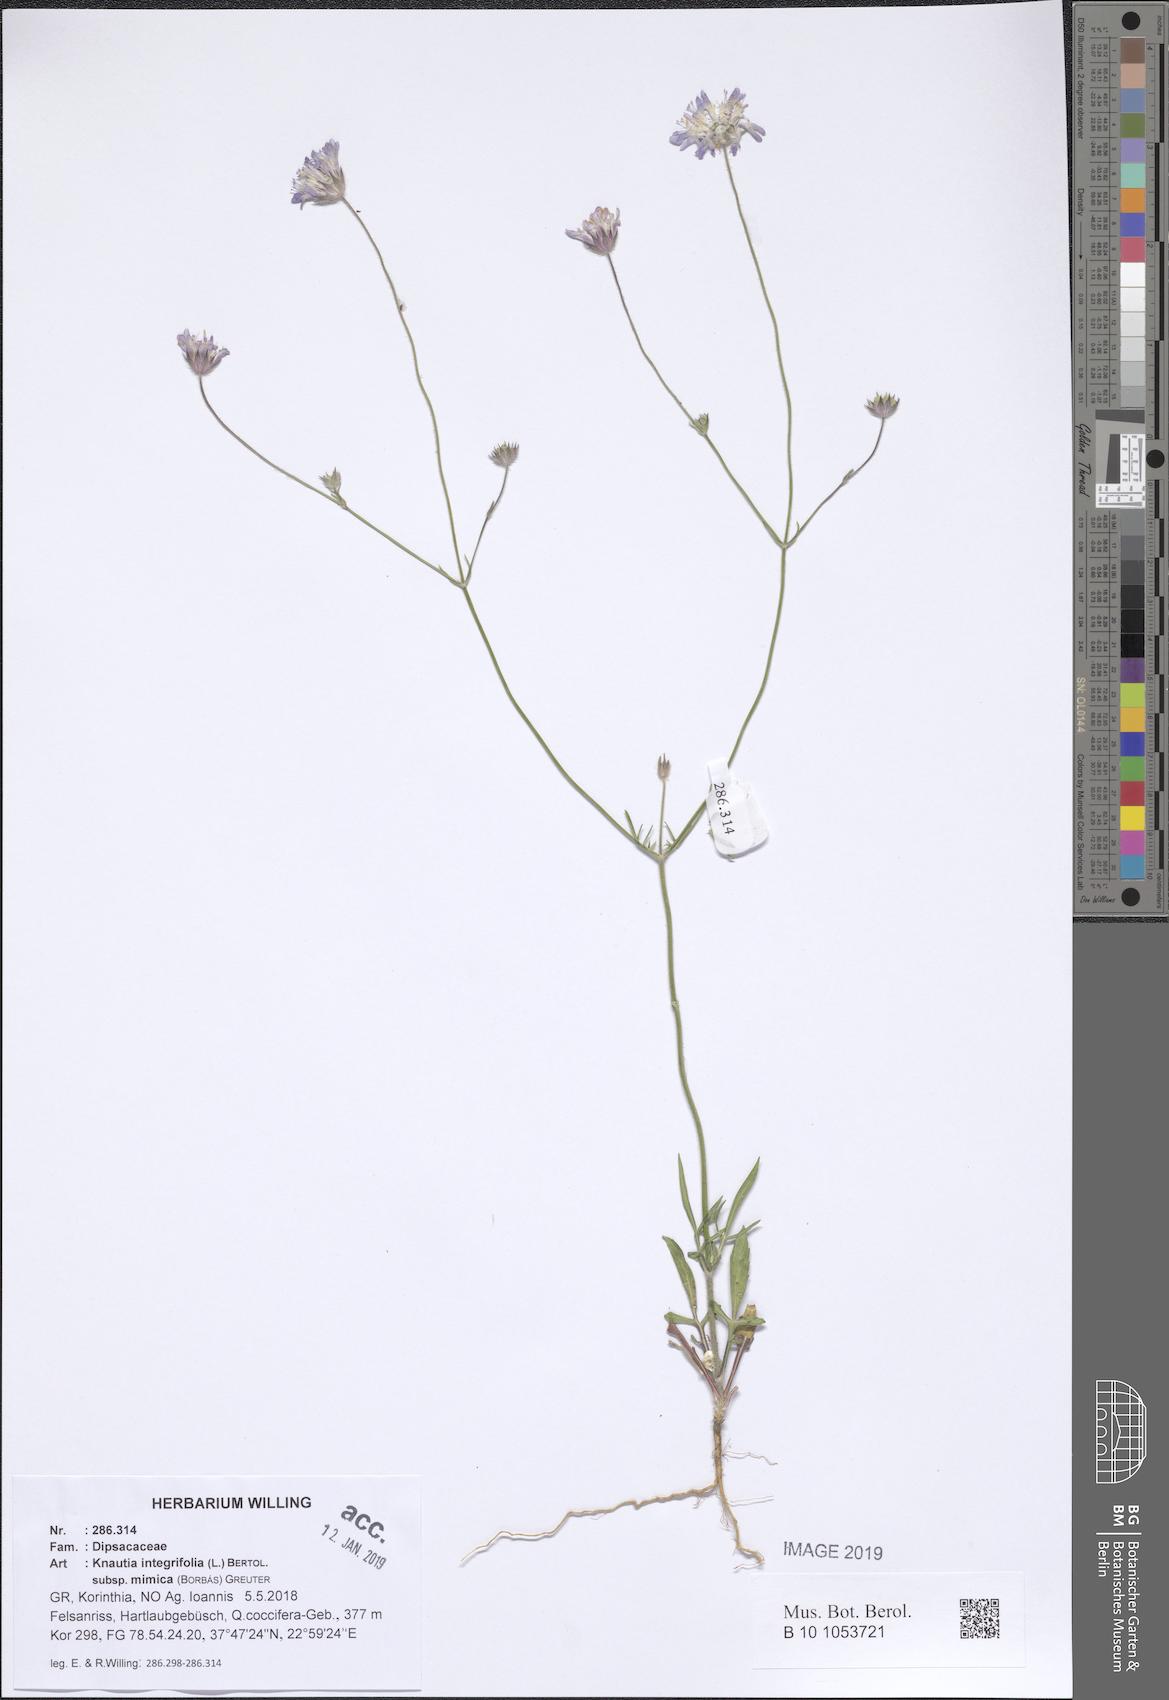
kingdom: Plantae
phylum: Tracheophyta
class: Magnoliopsida
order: Dipsacales
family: Caprifoliaceae
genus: Knautia
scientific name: Knautia integrifolia
